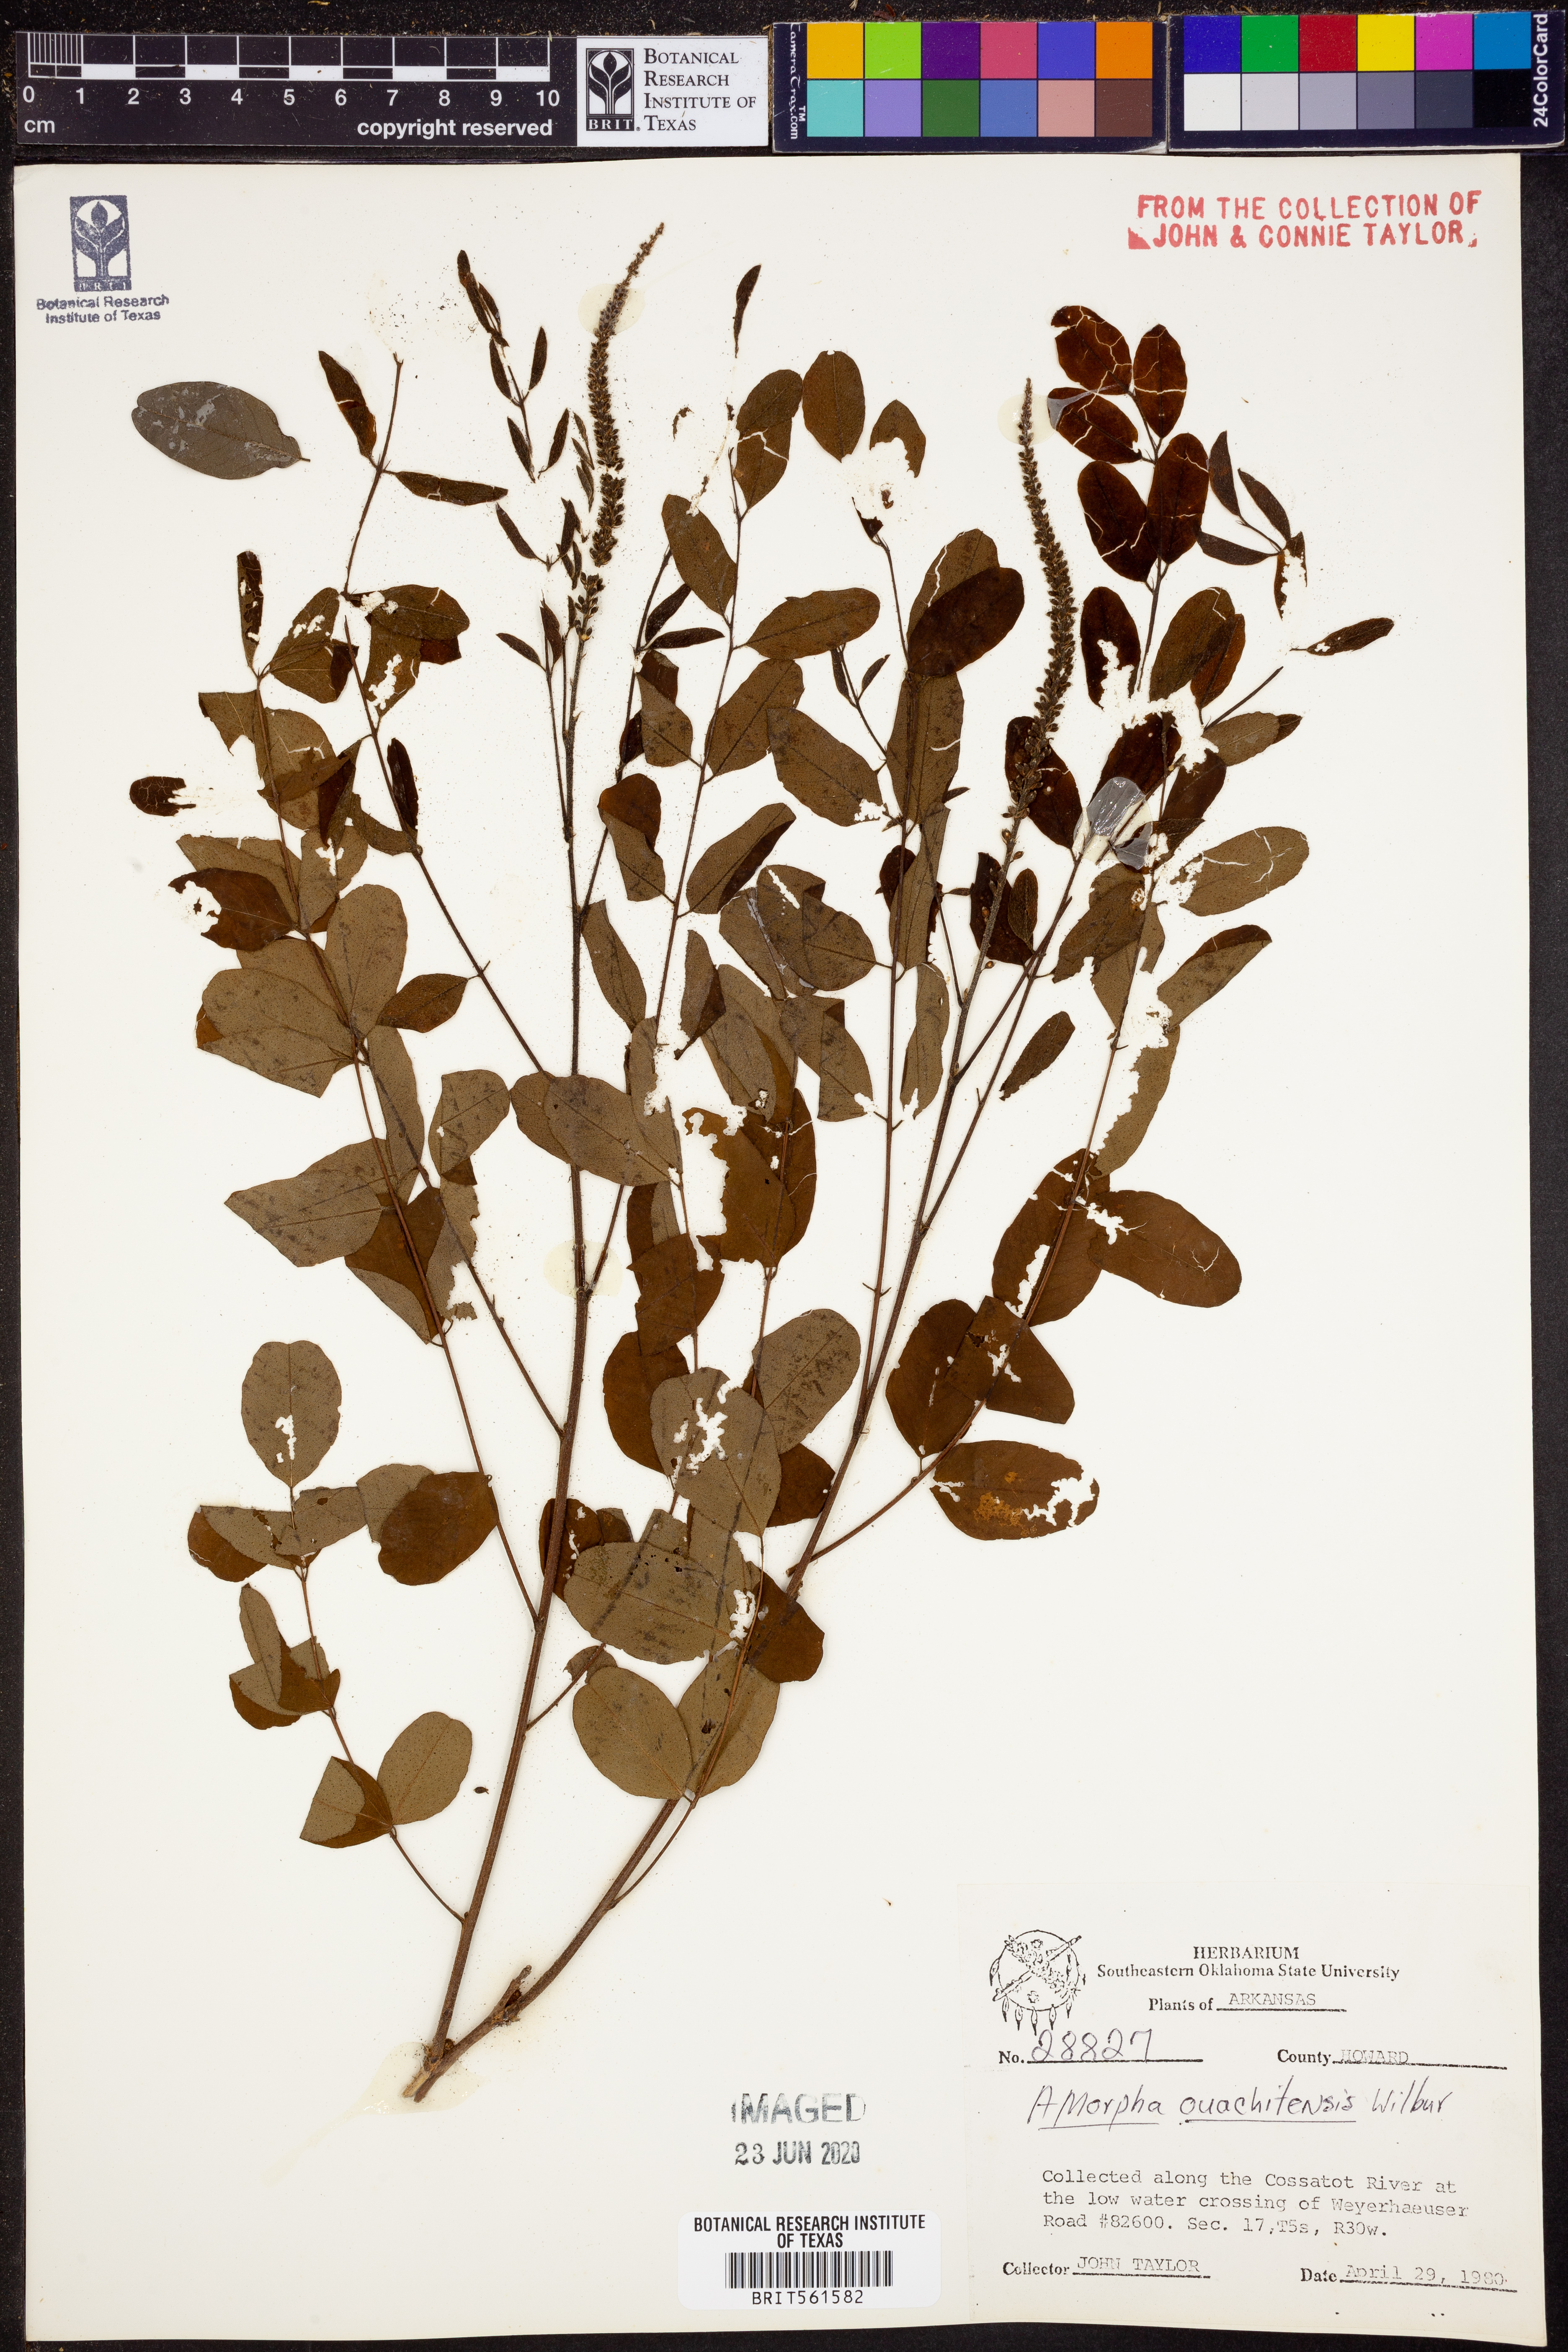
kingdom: Plantae
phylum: Tracheophyta
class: Magnoliopsida
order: Fabales
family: Fabaceae
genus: Amorpha
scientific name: Amorpha ouachitensis
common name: Ouachita false indigo
